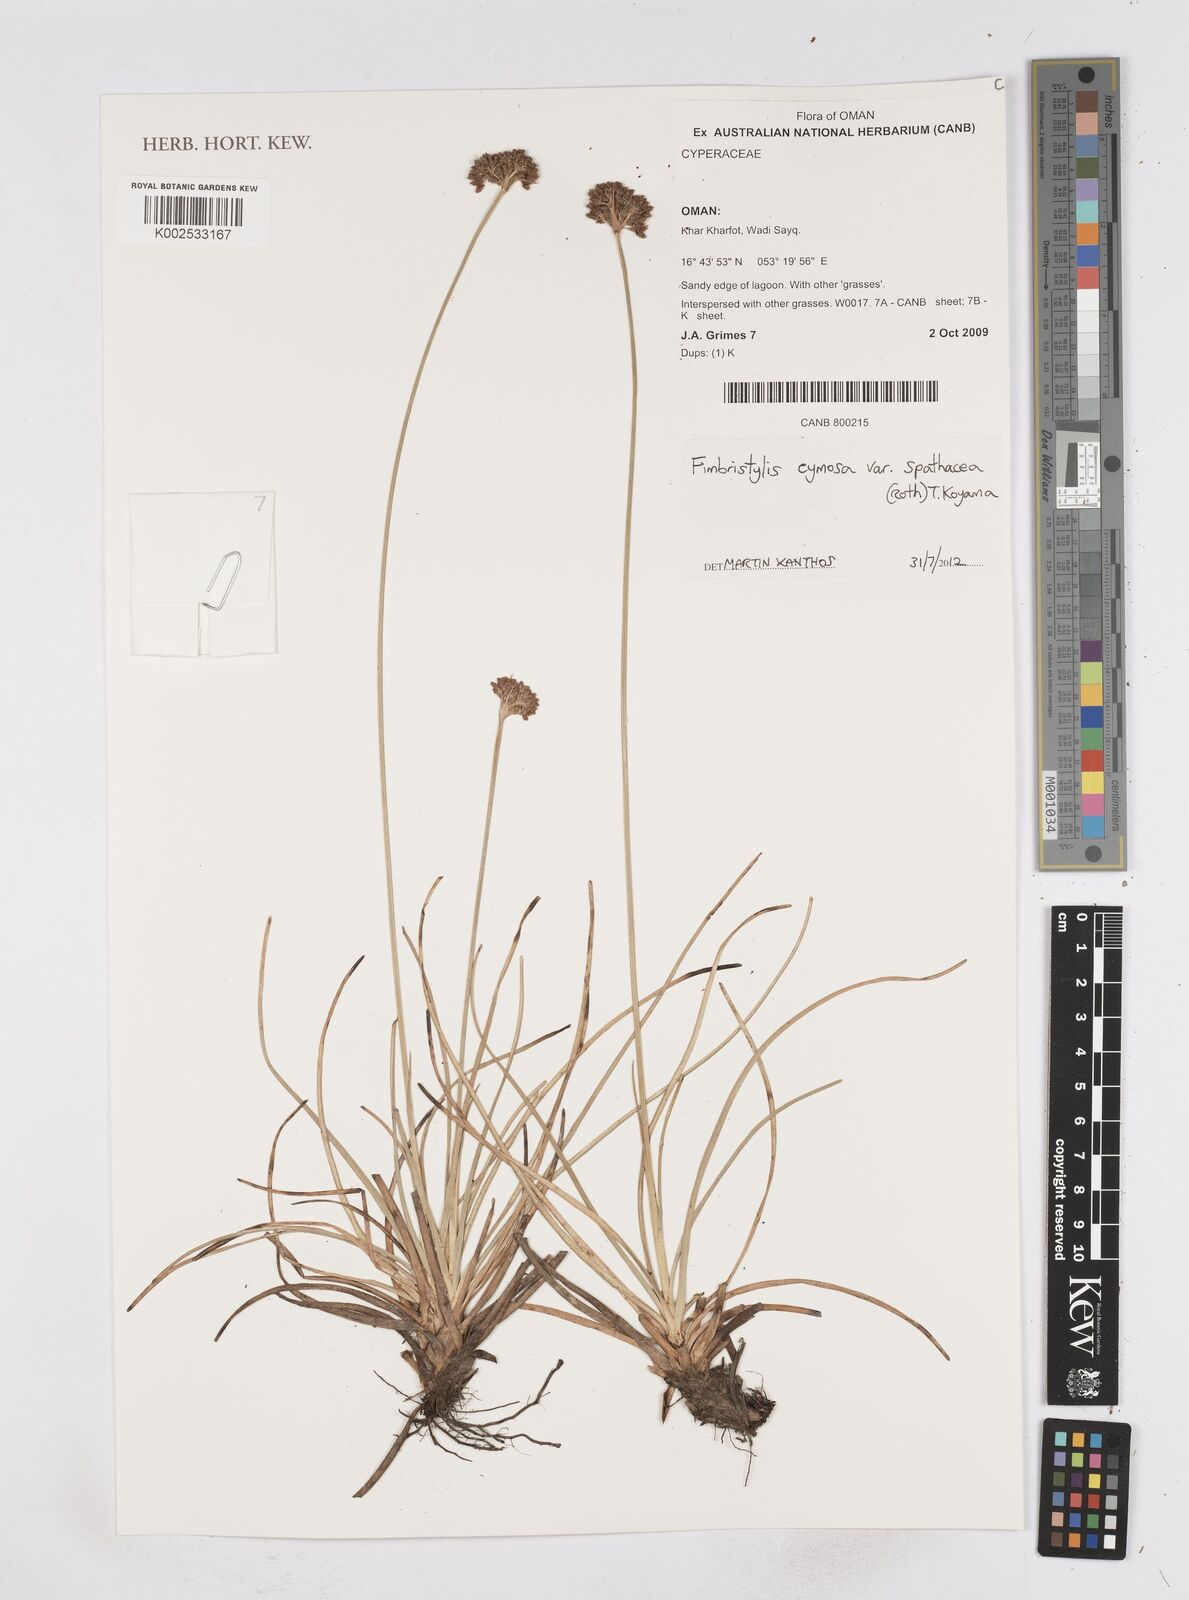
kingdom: Plantae
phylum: Tracheophyta
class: Liliopsida
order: Poales
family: Cyperaceae
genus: Fimbristylis
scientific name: Fimbristylis cymosa
